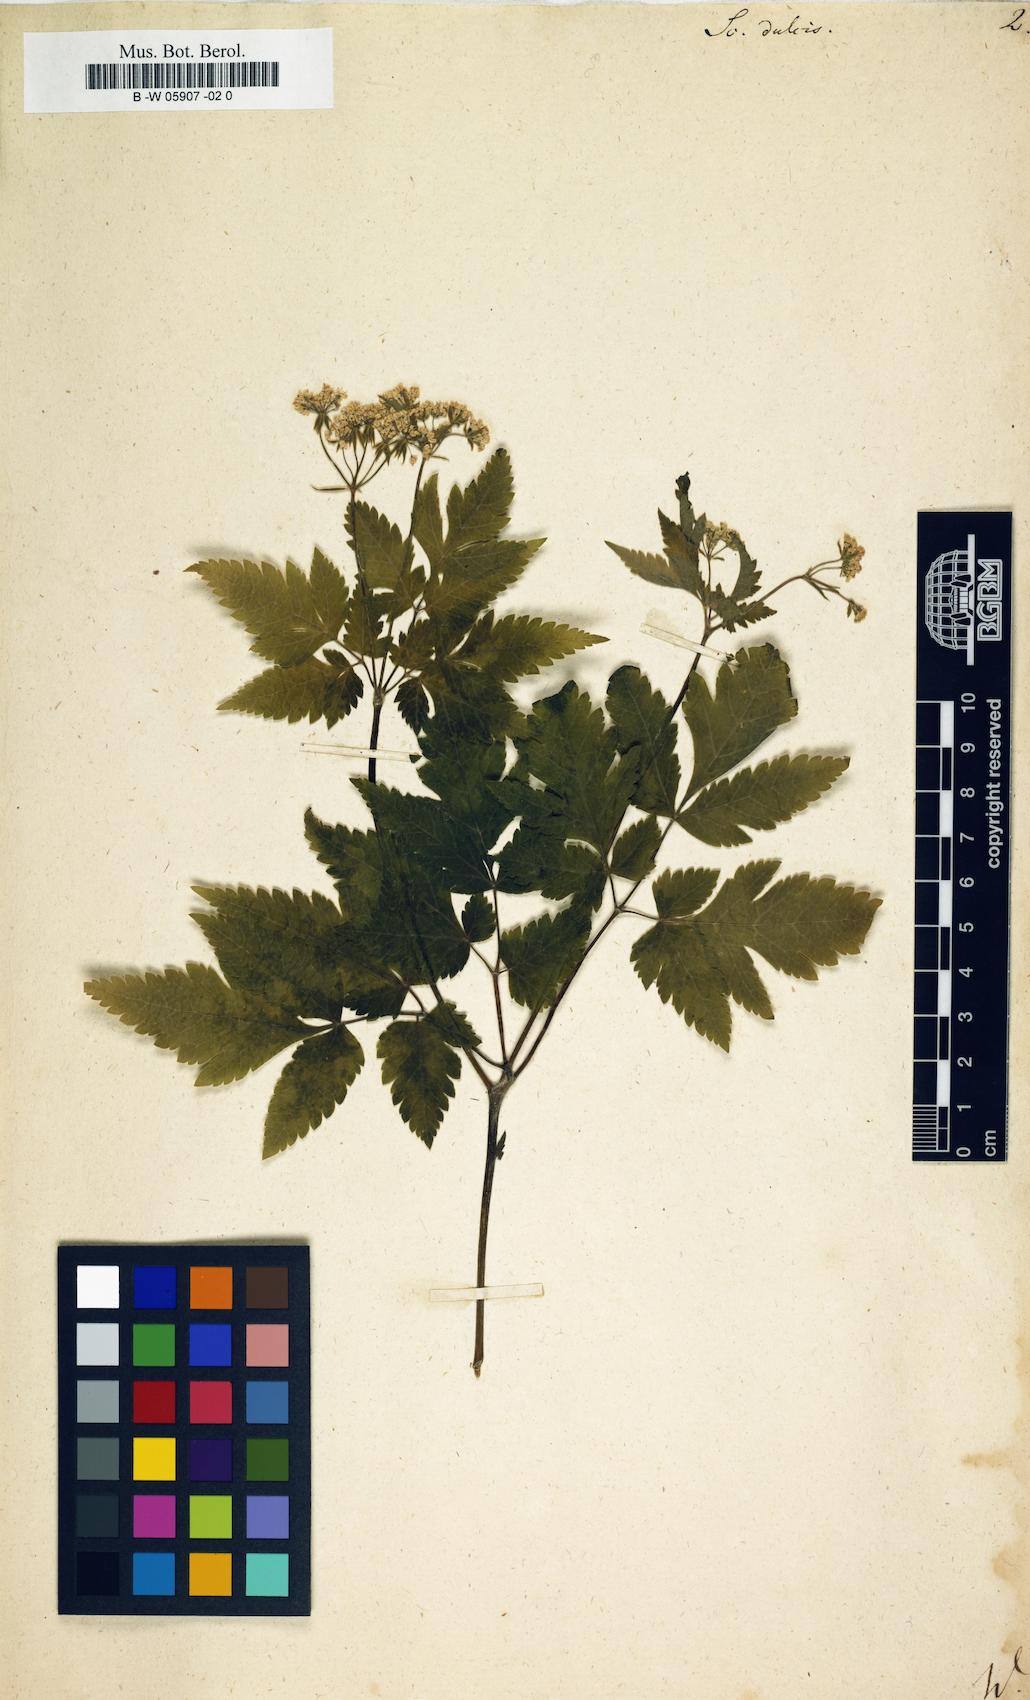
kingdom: Plantae
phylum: Tracheophyta
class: Magnoliopsida
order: Apiales
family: Apiaceae
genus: Osmorhiza
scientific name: Osmorhiza claytonii
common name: Hairy sweet cicely
